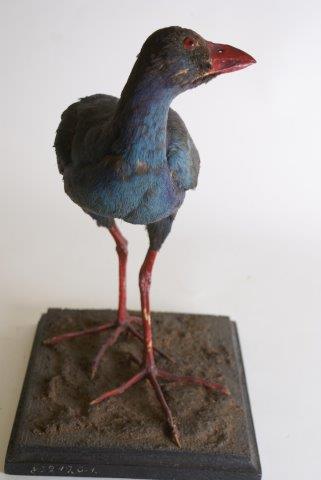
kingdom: Animalia
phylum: Chordata
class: Aves
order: Gruiformes
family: Rallidae
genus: Porphyrio
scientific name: Porphyrio porphyrio
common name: Purperkoet
